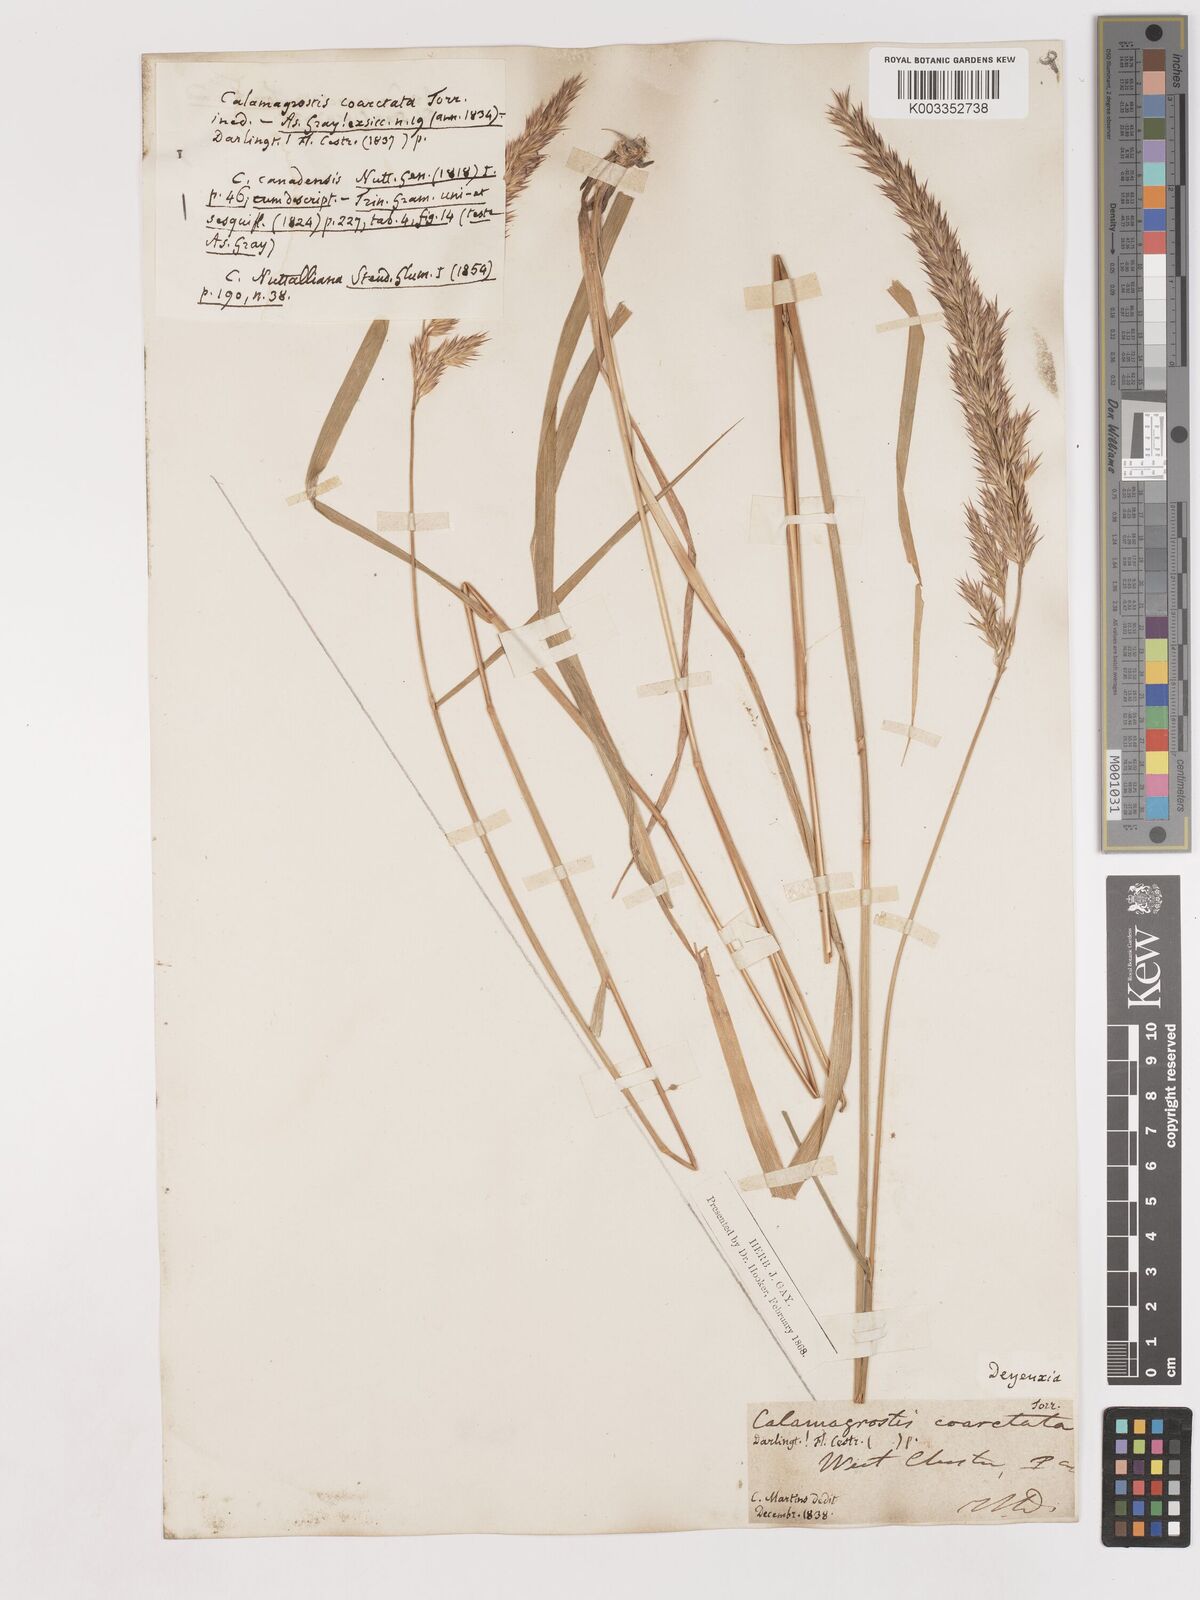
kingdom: Plantae
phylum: Tracheophyta
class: Liliopsida
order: Poales
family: Poaceae
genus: Calamagrostis
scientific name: Calamagrostis canadensis
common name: Canada bluejoint
